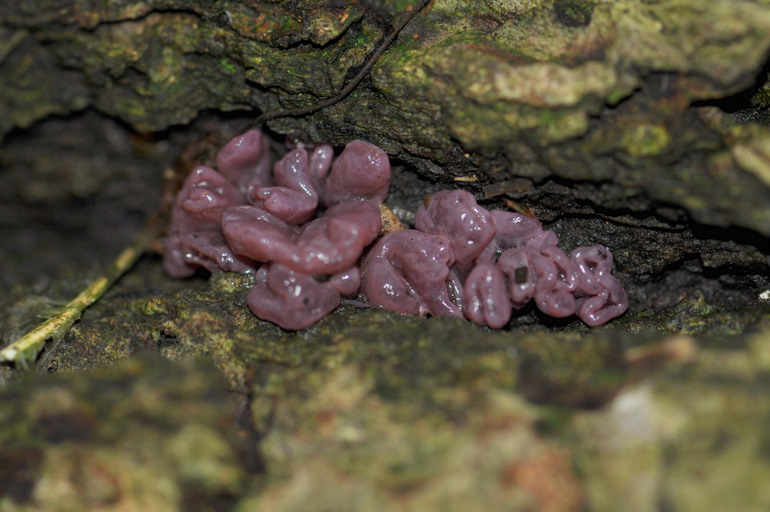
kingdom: Fungi
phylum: Ascomycota
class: Leotiomycetes
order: Helotiales
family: Gelatinodiscaceae
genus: Ascocoryne
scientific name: Ascocoryne sarcoides
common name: rødlilla sejskive
